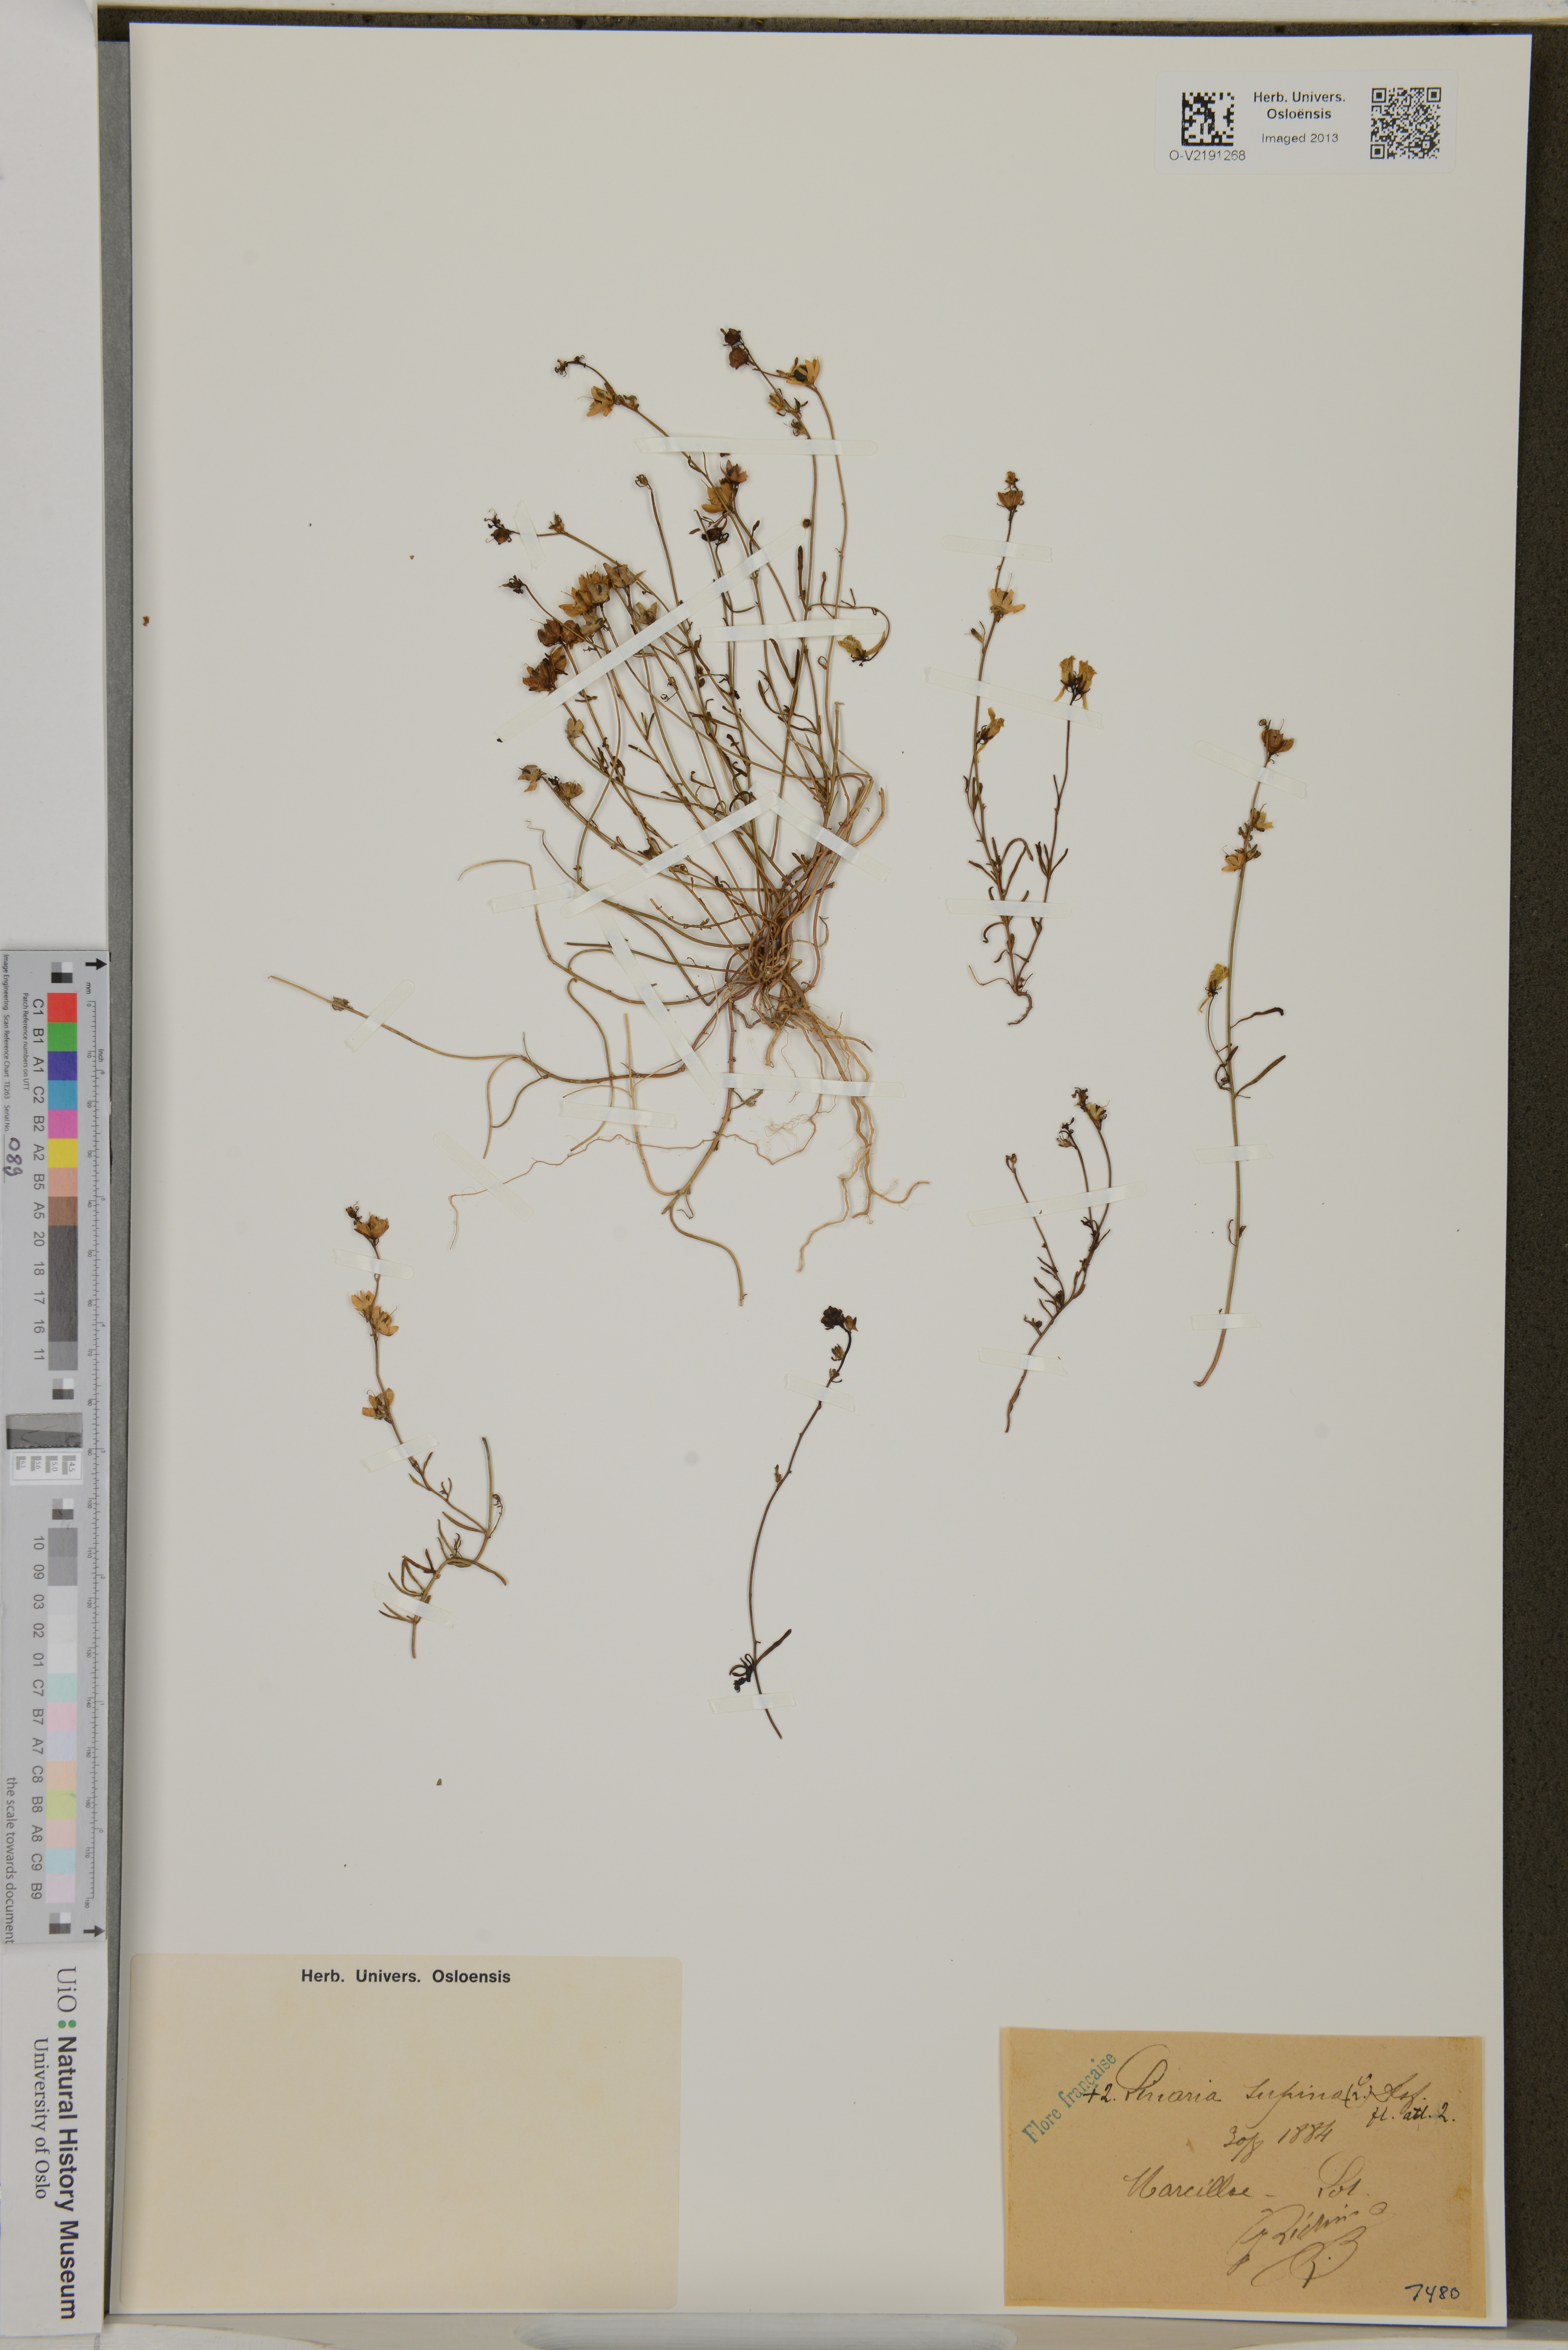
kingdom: Plantae
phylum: Tracheophyta
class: Magnoliopsida
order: Lamiales
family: Plantaginaceae
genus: Linaria
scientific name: Linaria supina
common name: Prostrate toadflax
